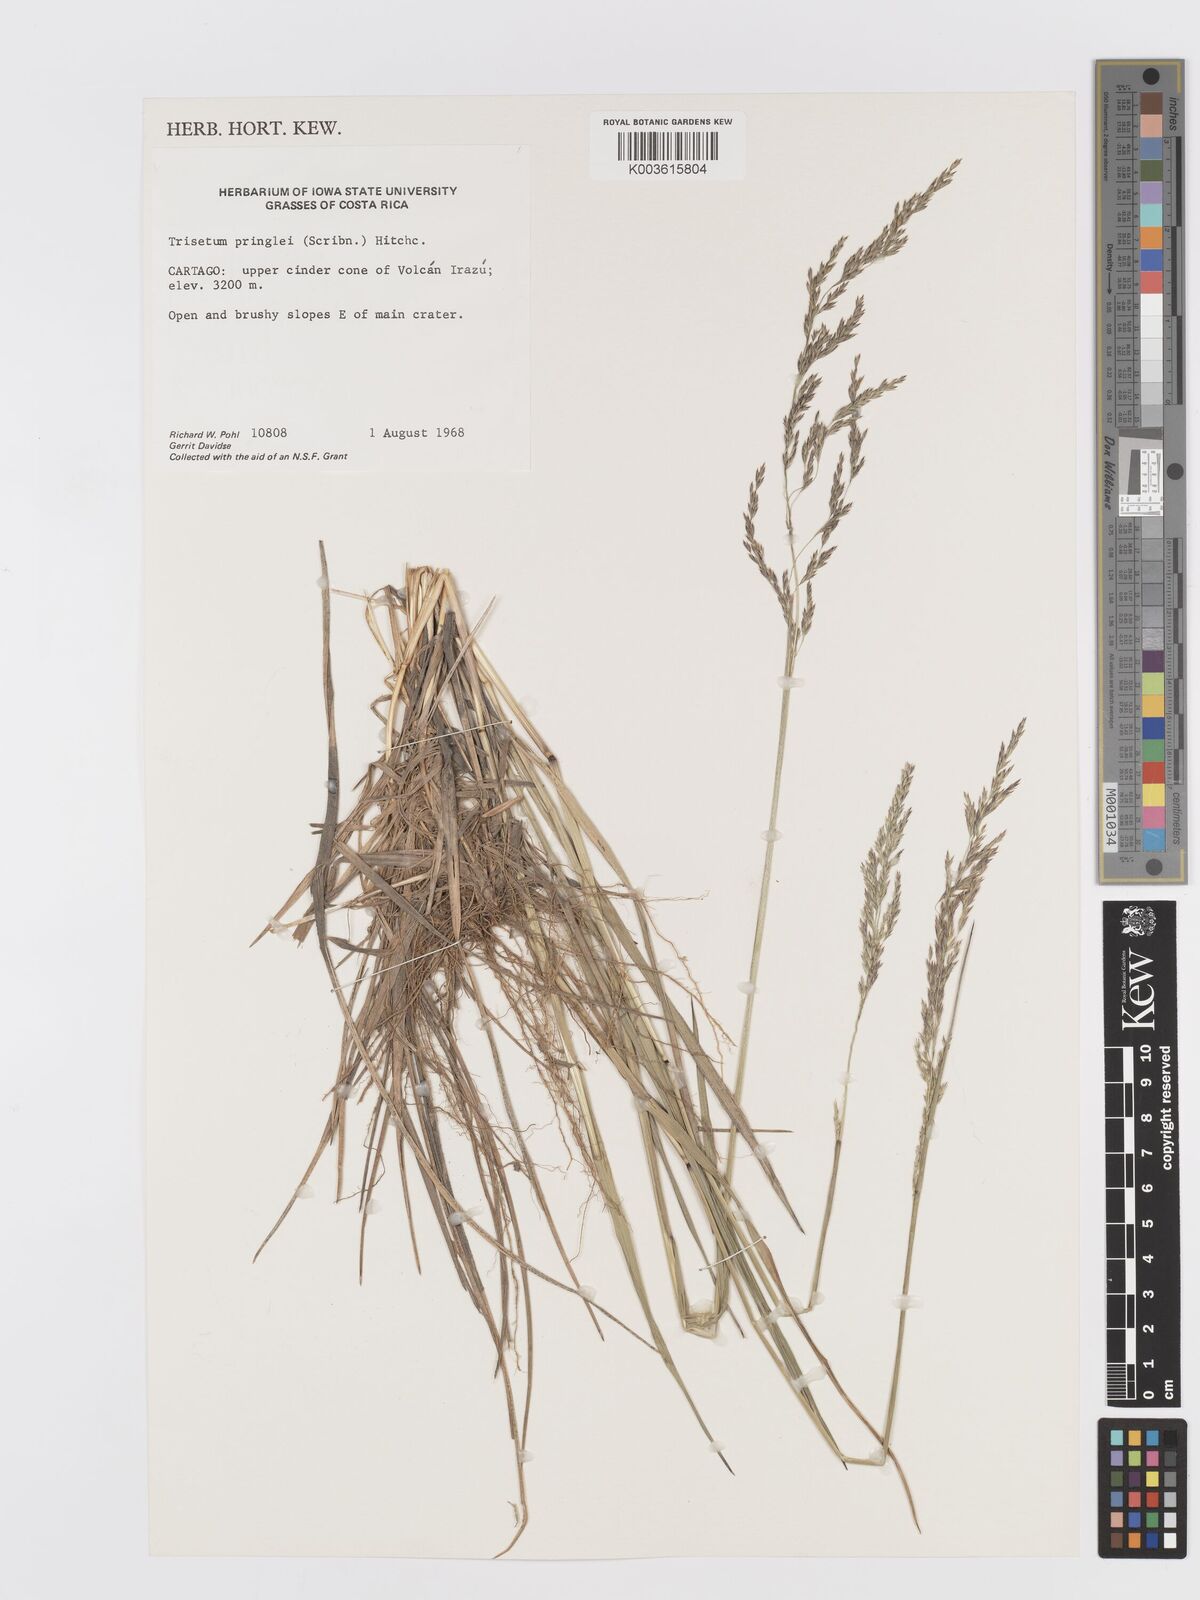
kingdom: Plantae
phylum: Tracheophyta
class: Liliopsida
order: Poales
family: Poaceae
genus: Peyritschia
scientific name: Peyritschia graphephoroides
